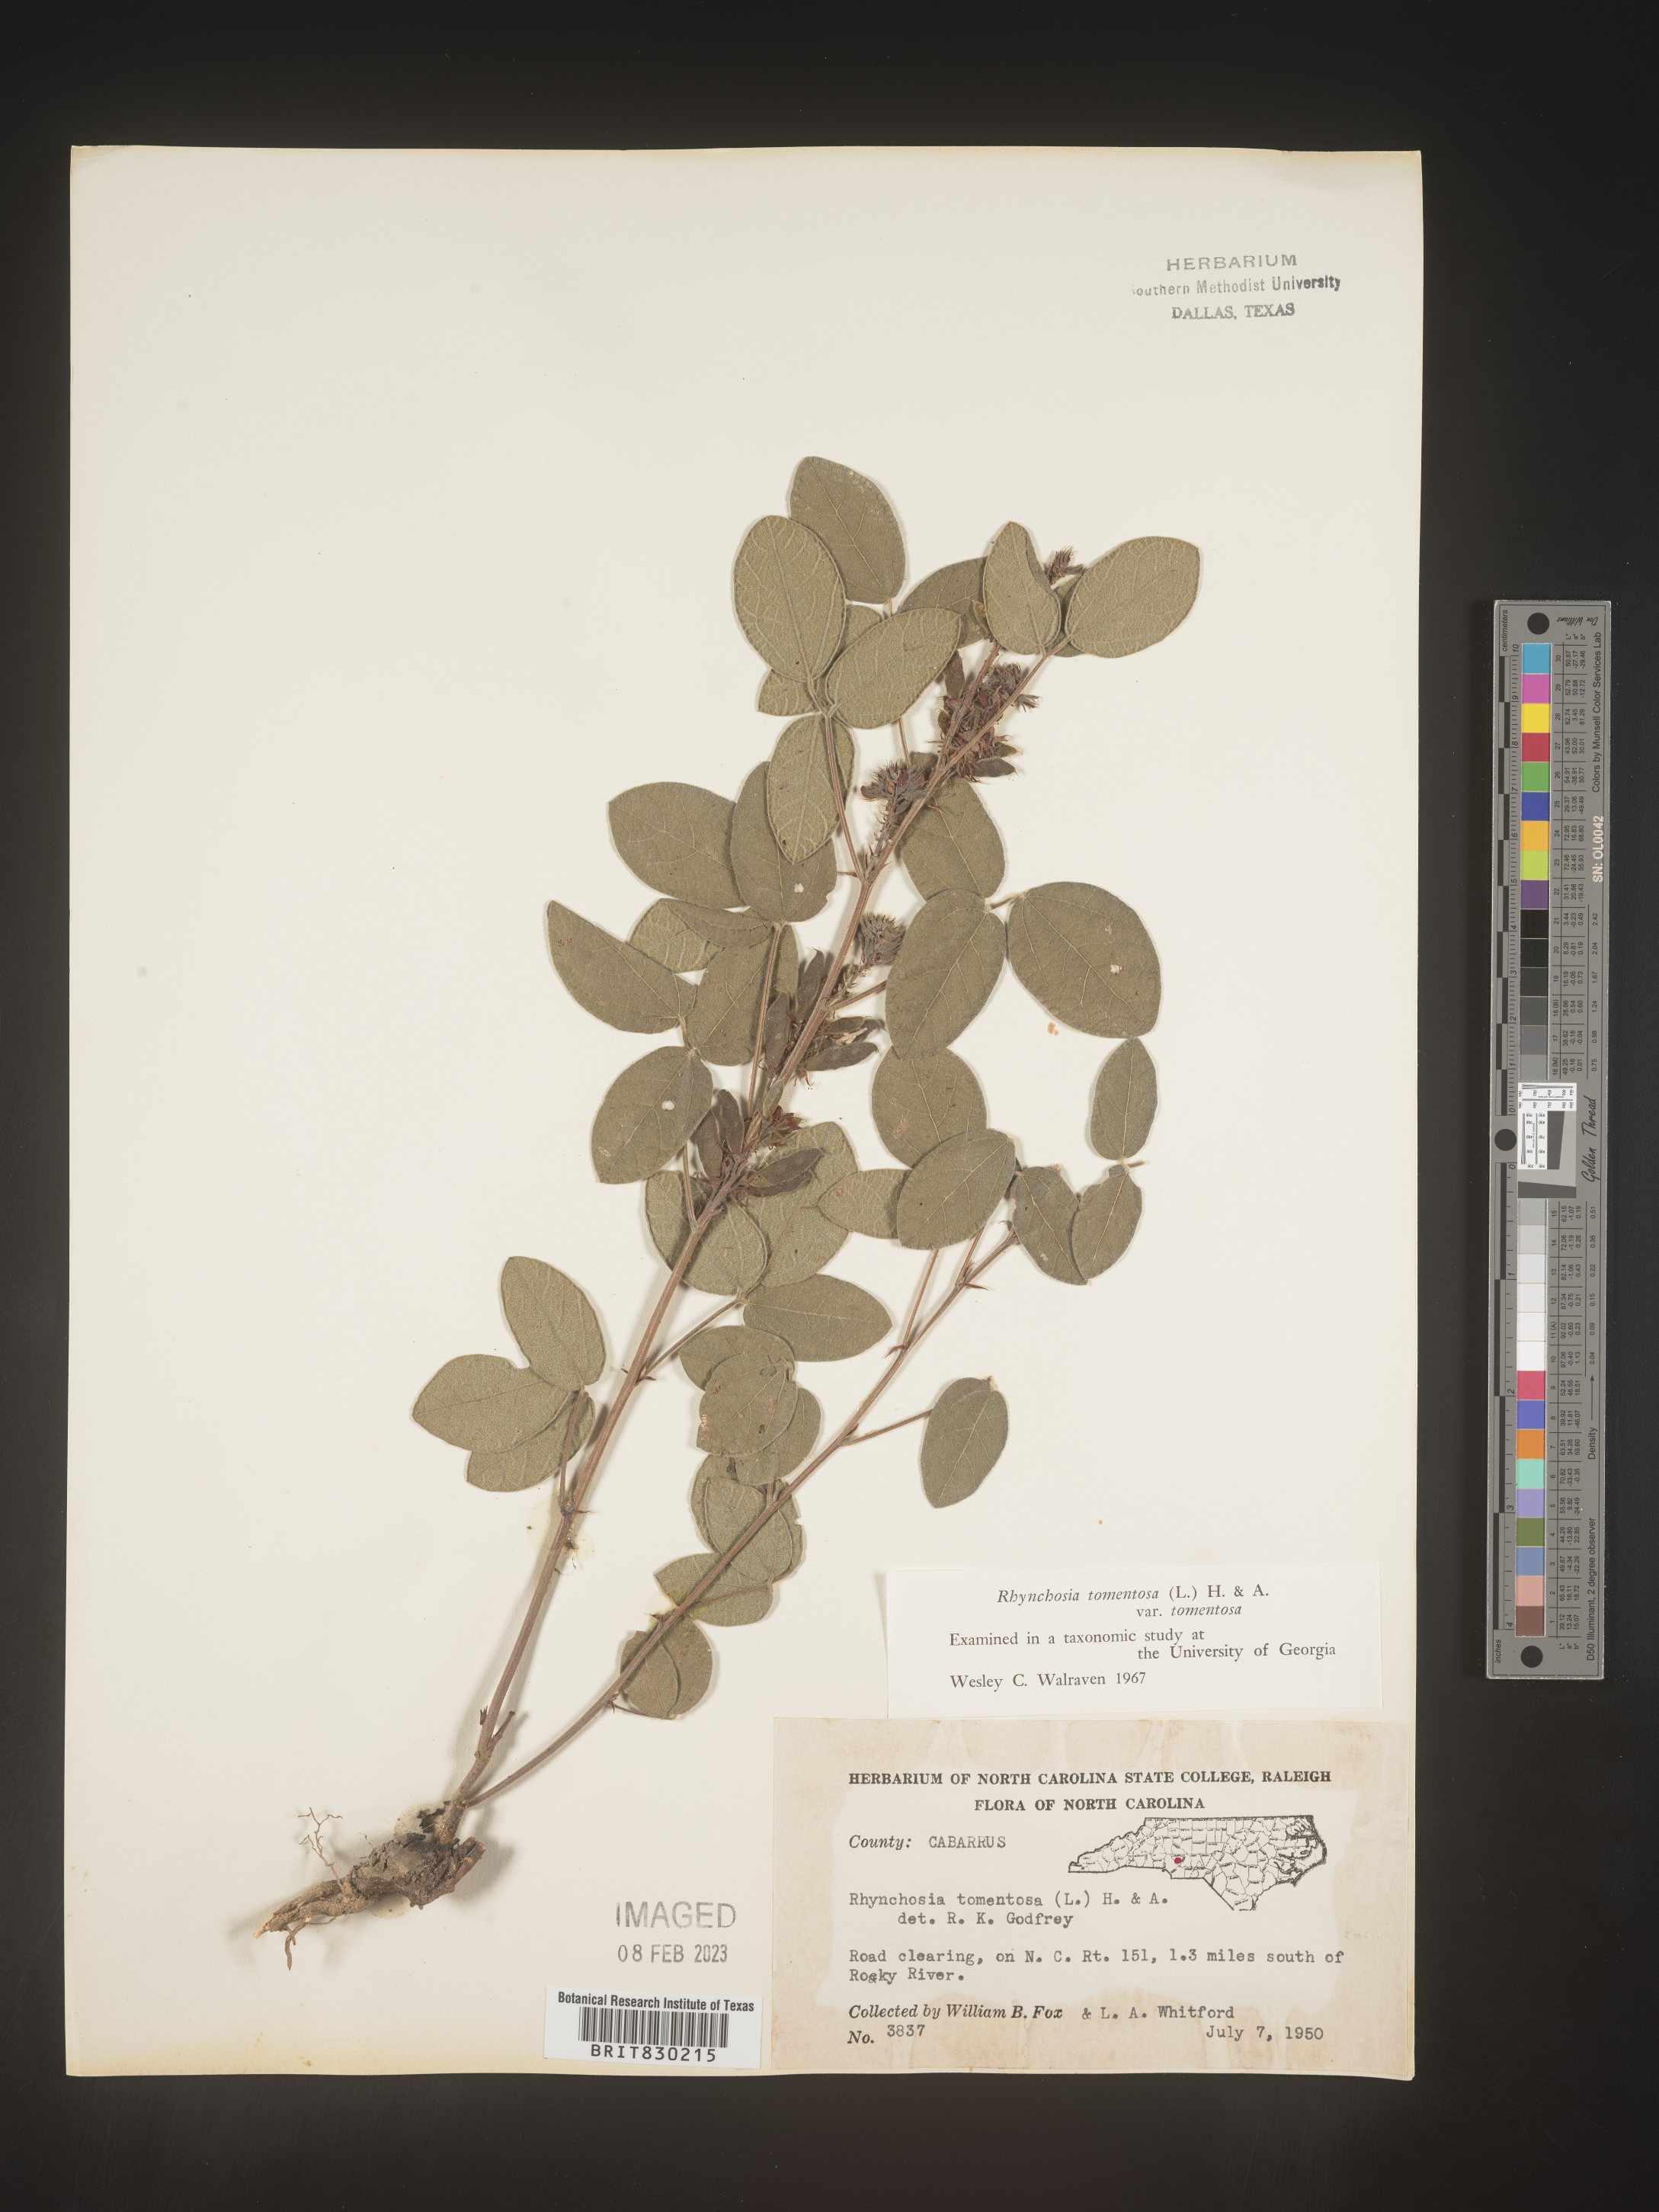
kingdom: Plantae
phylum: Tracheophyta
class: Magnoliopsida
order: Fabales
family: Fabaceae
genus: Rhynchosia
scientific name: Rhynchosia rothii
